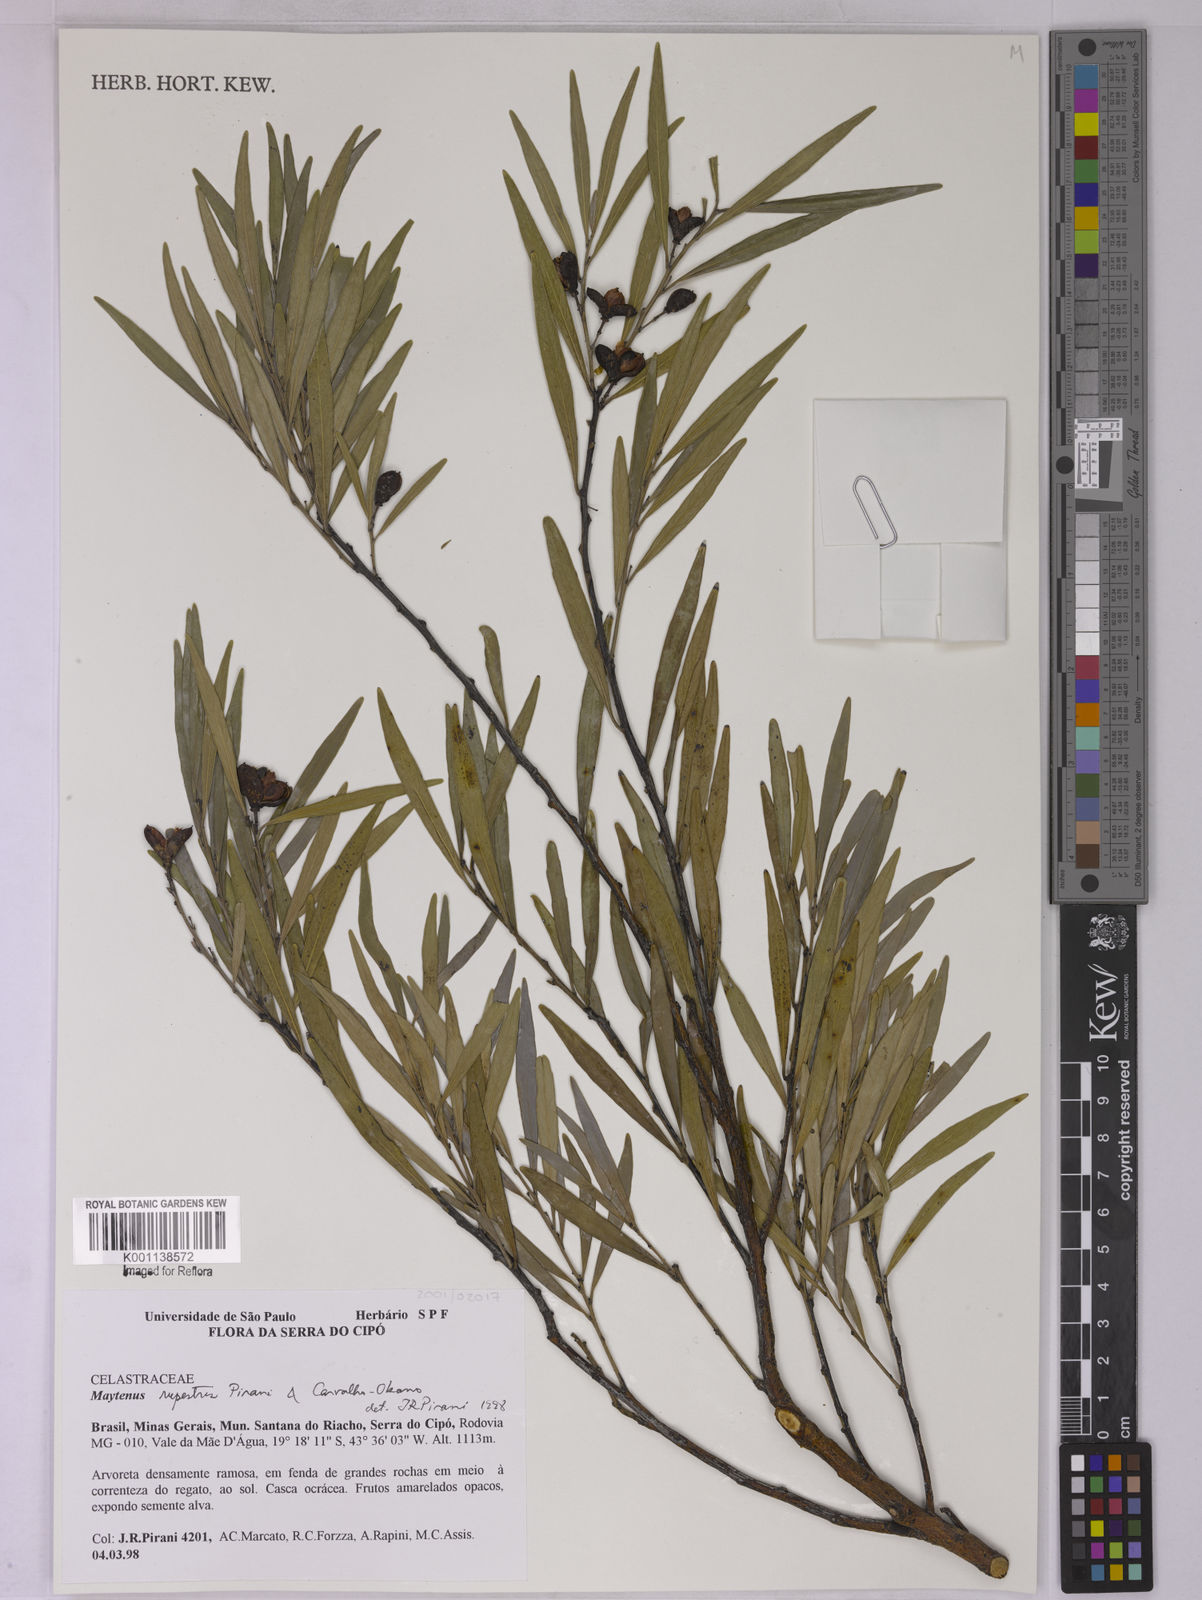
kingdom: Plantae
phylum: Tracheophyta
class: Magnoliopsida
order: Celastrales
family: Celastraceae
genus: Monteverdia
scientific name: Monteverdia rupestris
